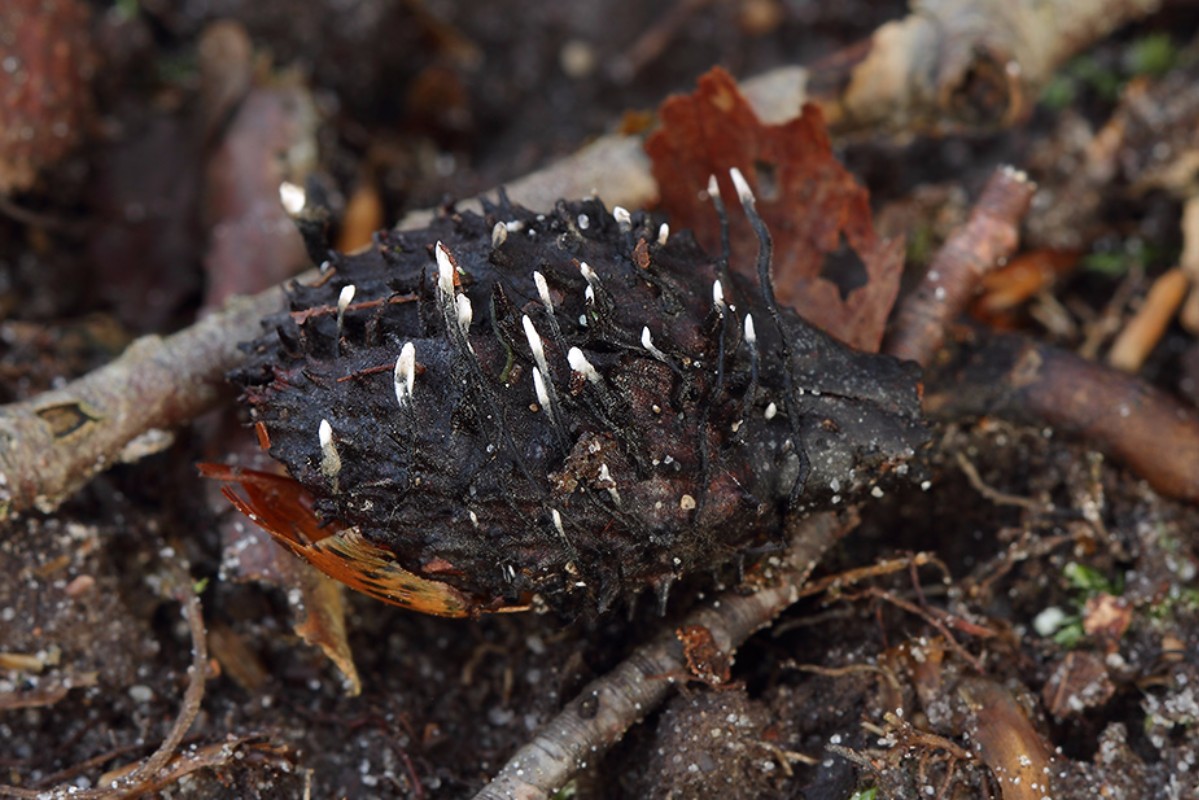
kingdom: Fungi
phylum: Ascomycota
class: Sordariomycetes
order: Xylariales
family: Xylariaceae
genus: Xylaria
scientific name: Xylaria carpophila
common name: bogskål-stødsvamp
